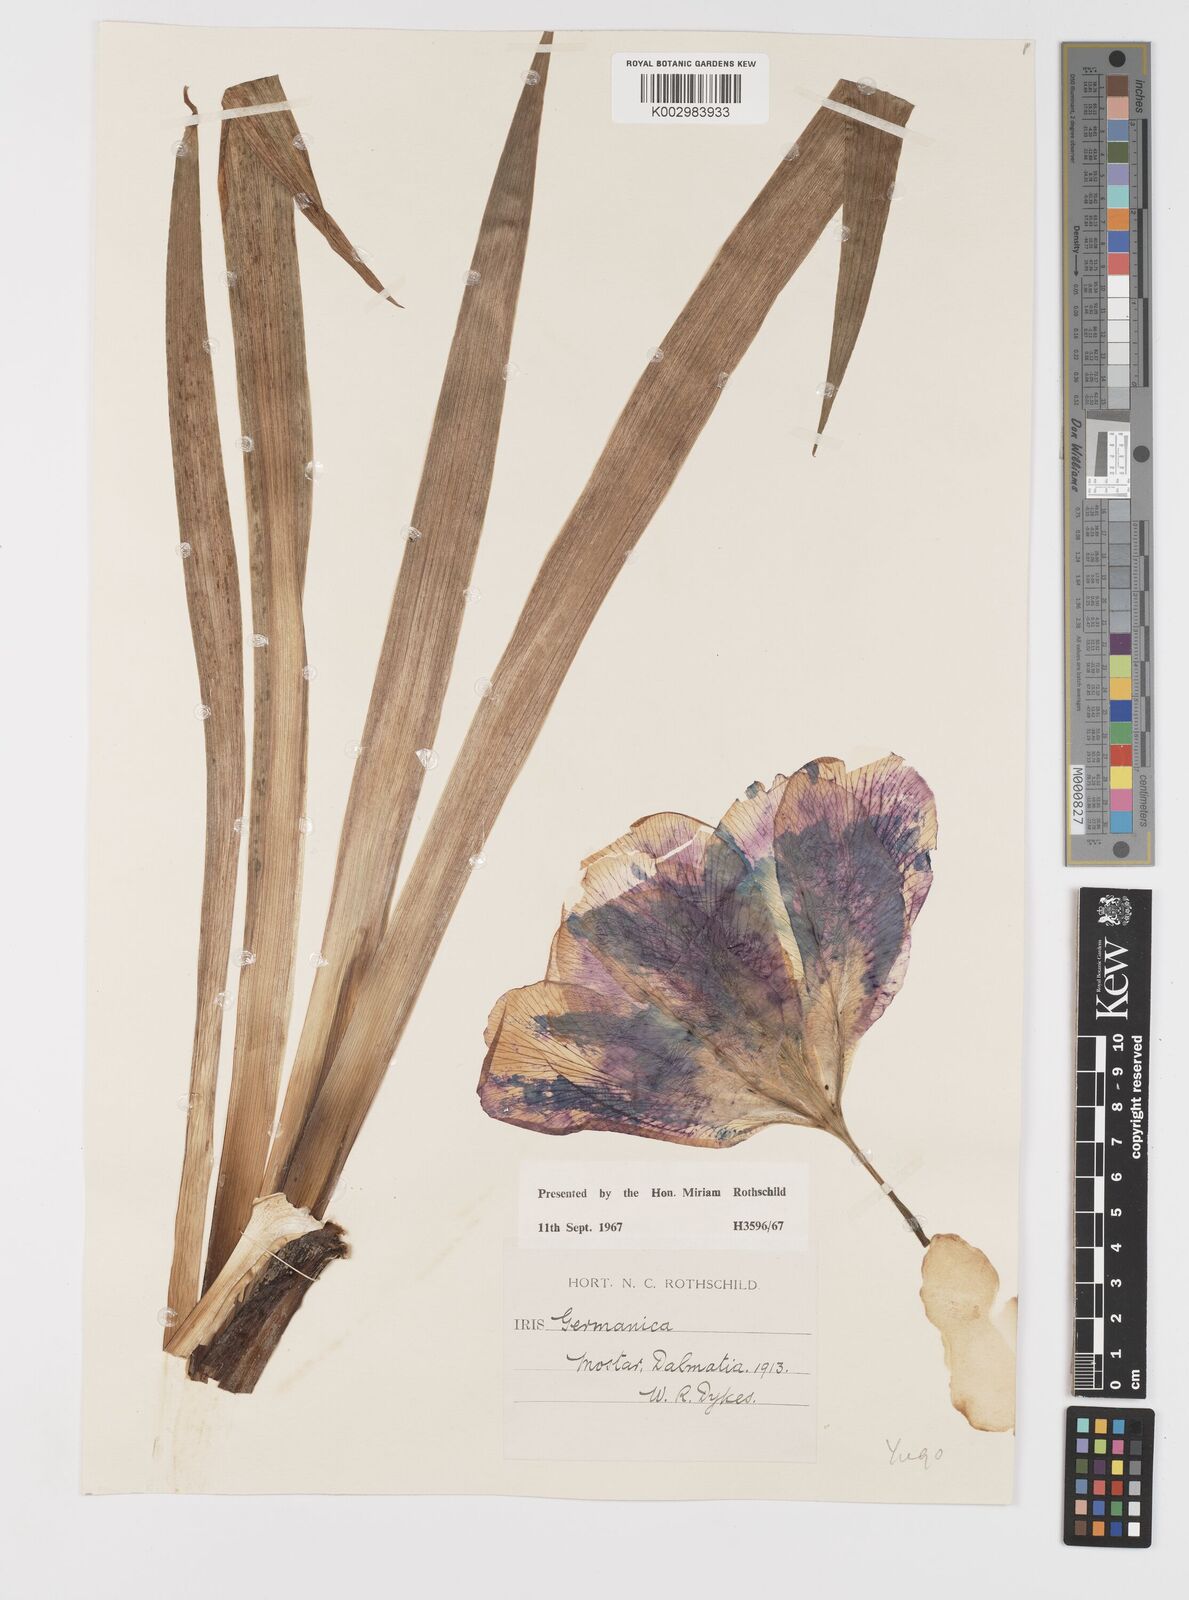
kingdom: Plantae
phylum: Tracheophyta
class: Liliopsida
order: Asparagales
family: Iridaceae
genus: Iris
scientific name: Iris germanica
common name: German iris
